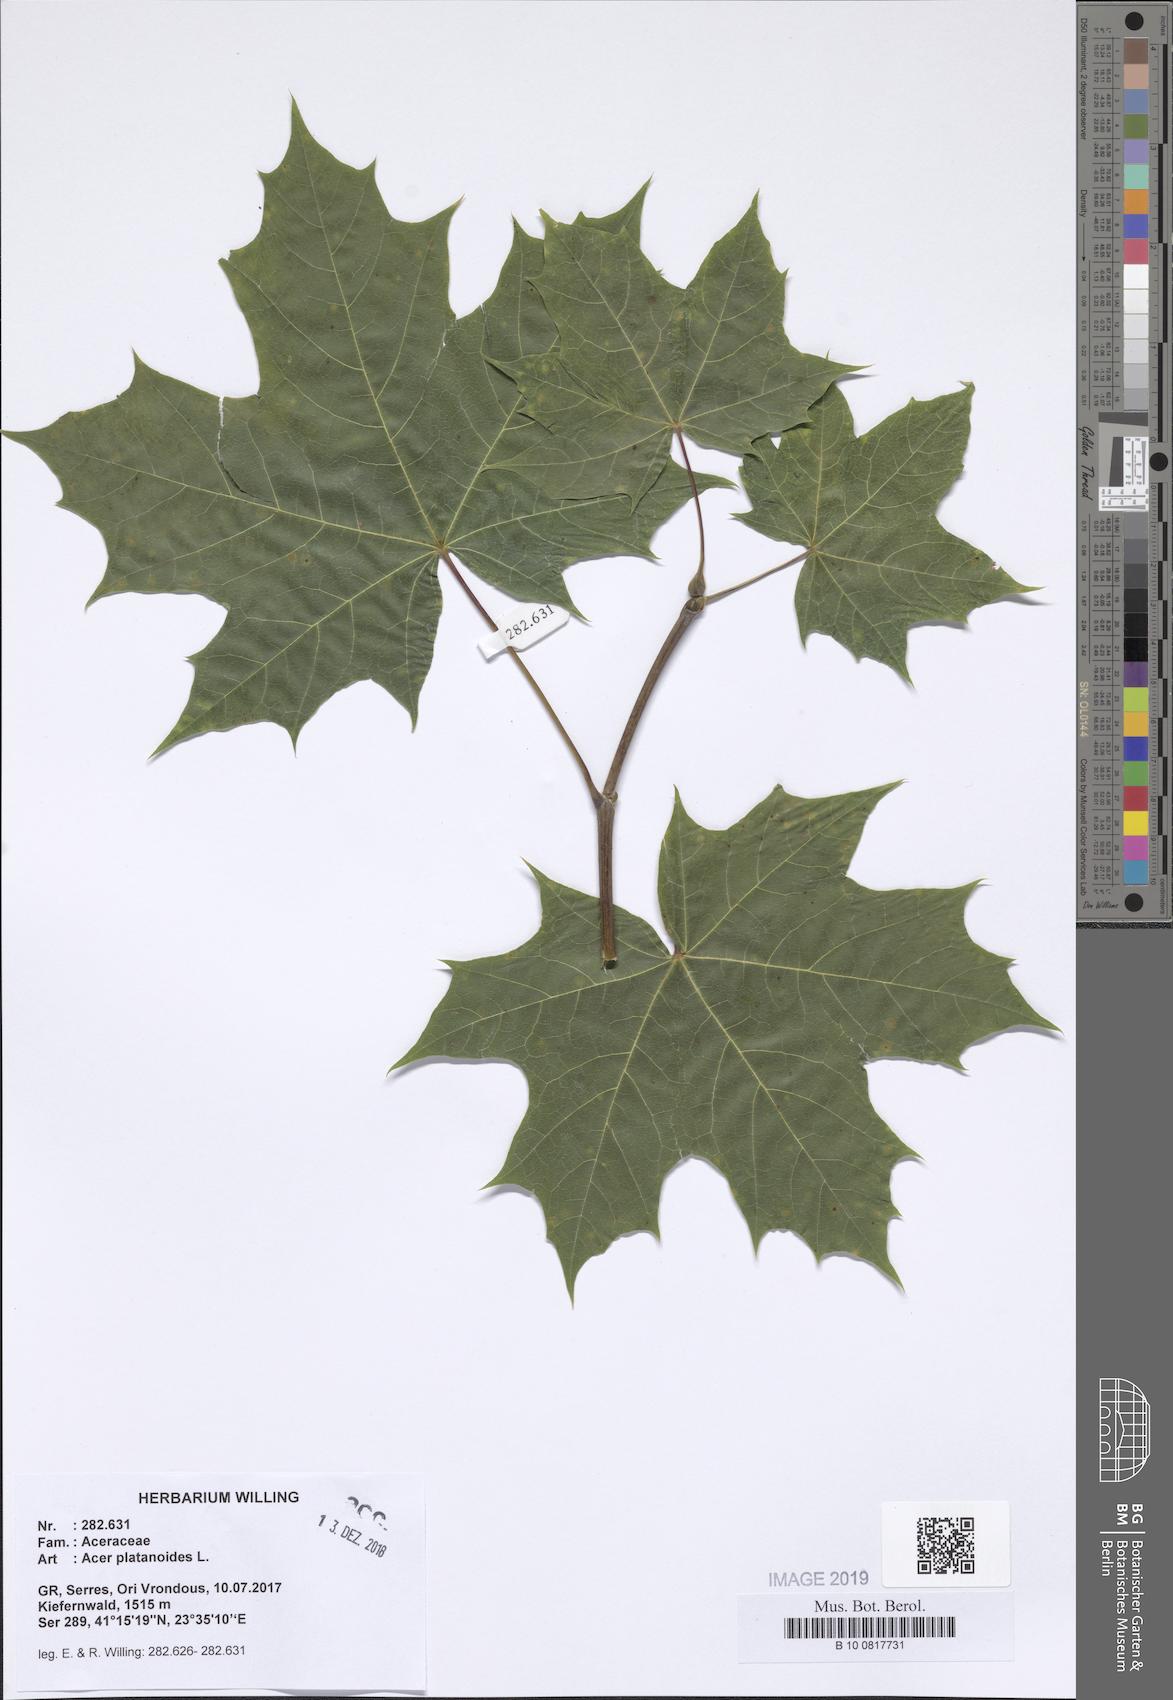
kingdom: Plantae
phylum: Tracheophyta
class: Magnoliopsida
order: Sapindales
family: Sapindaceae
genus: Acer
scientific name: Acer platanoides
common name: Norway maple
